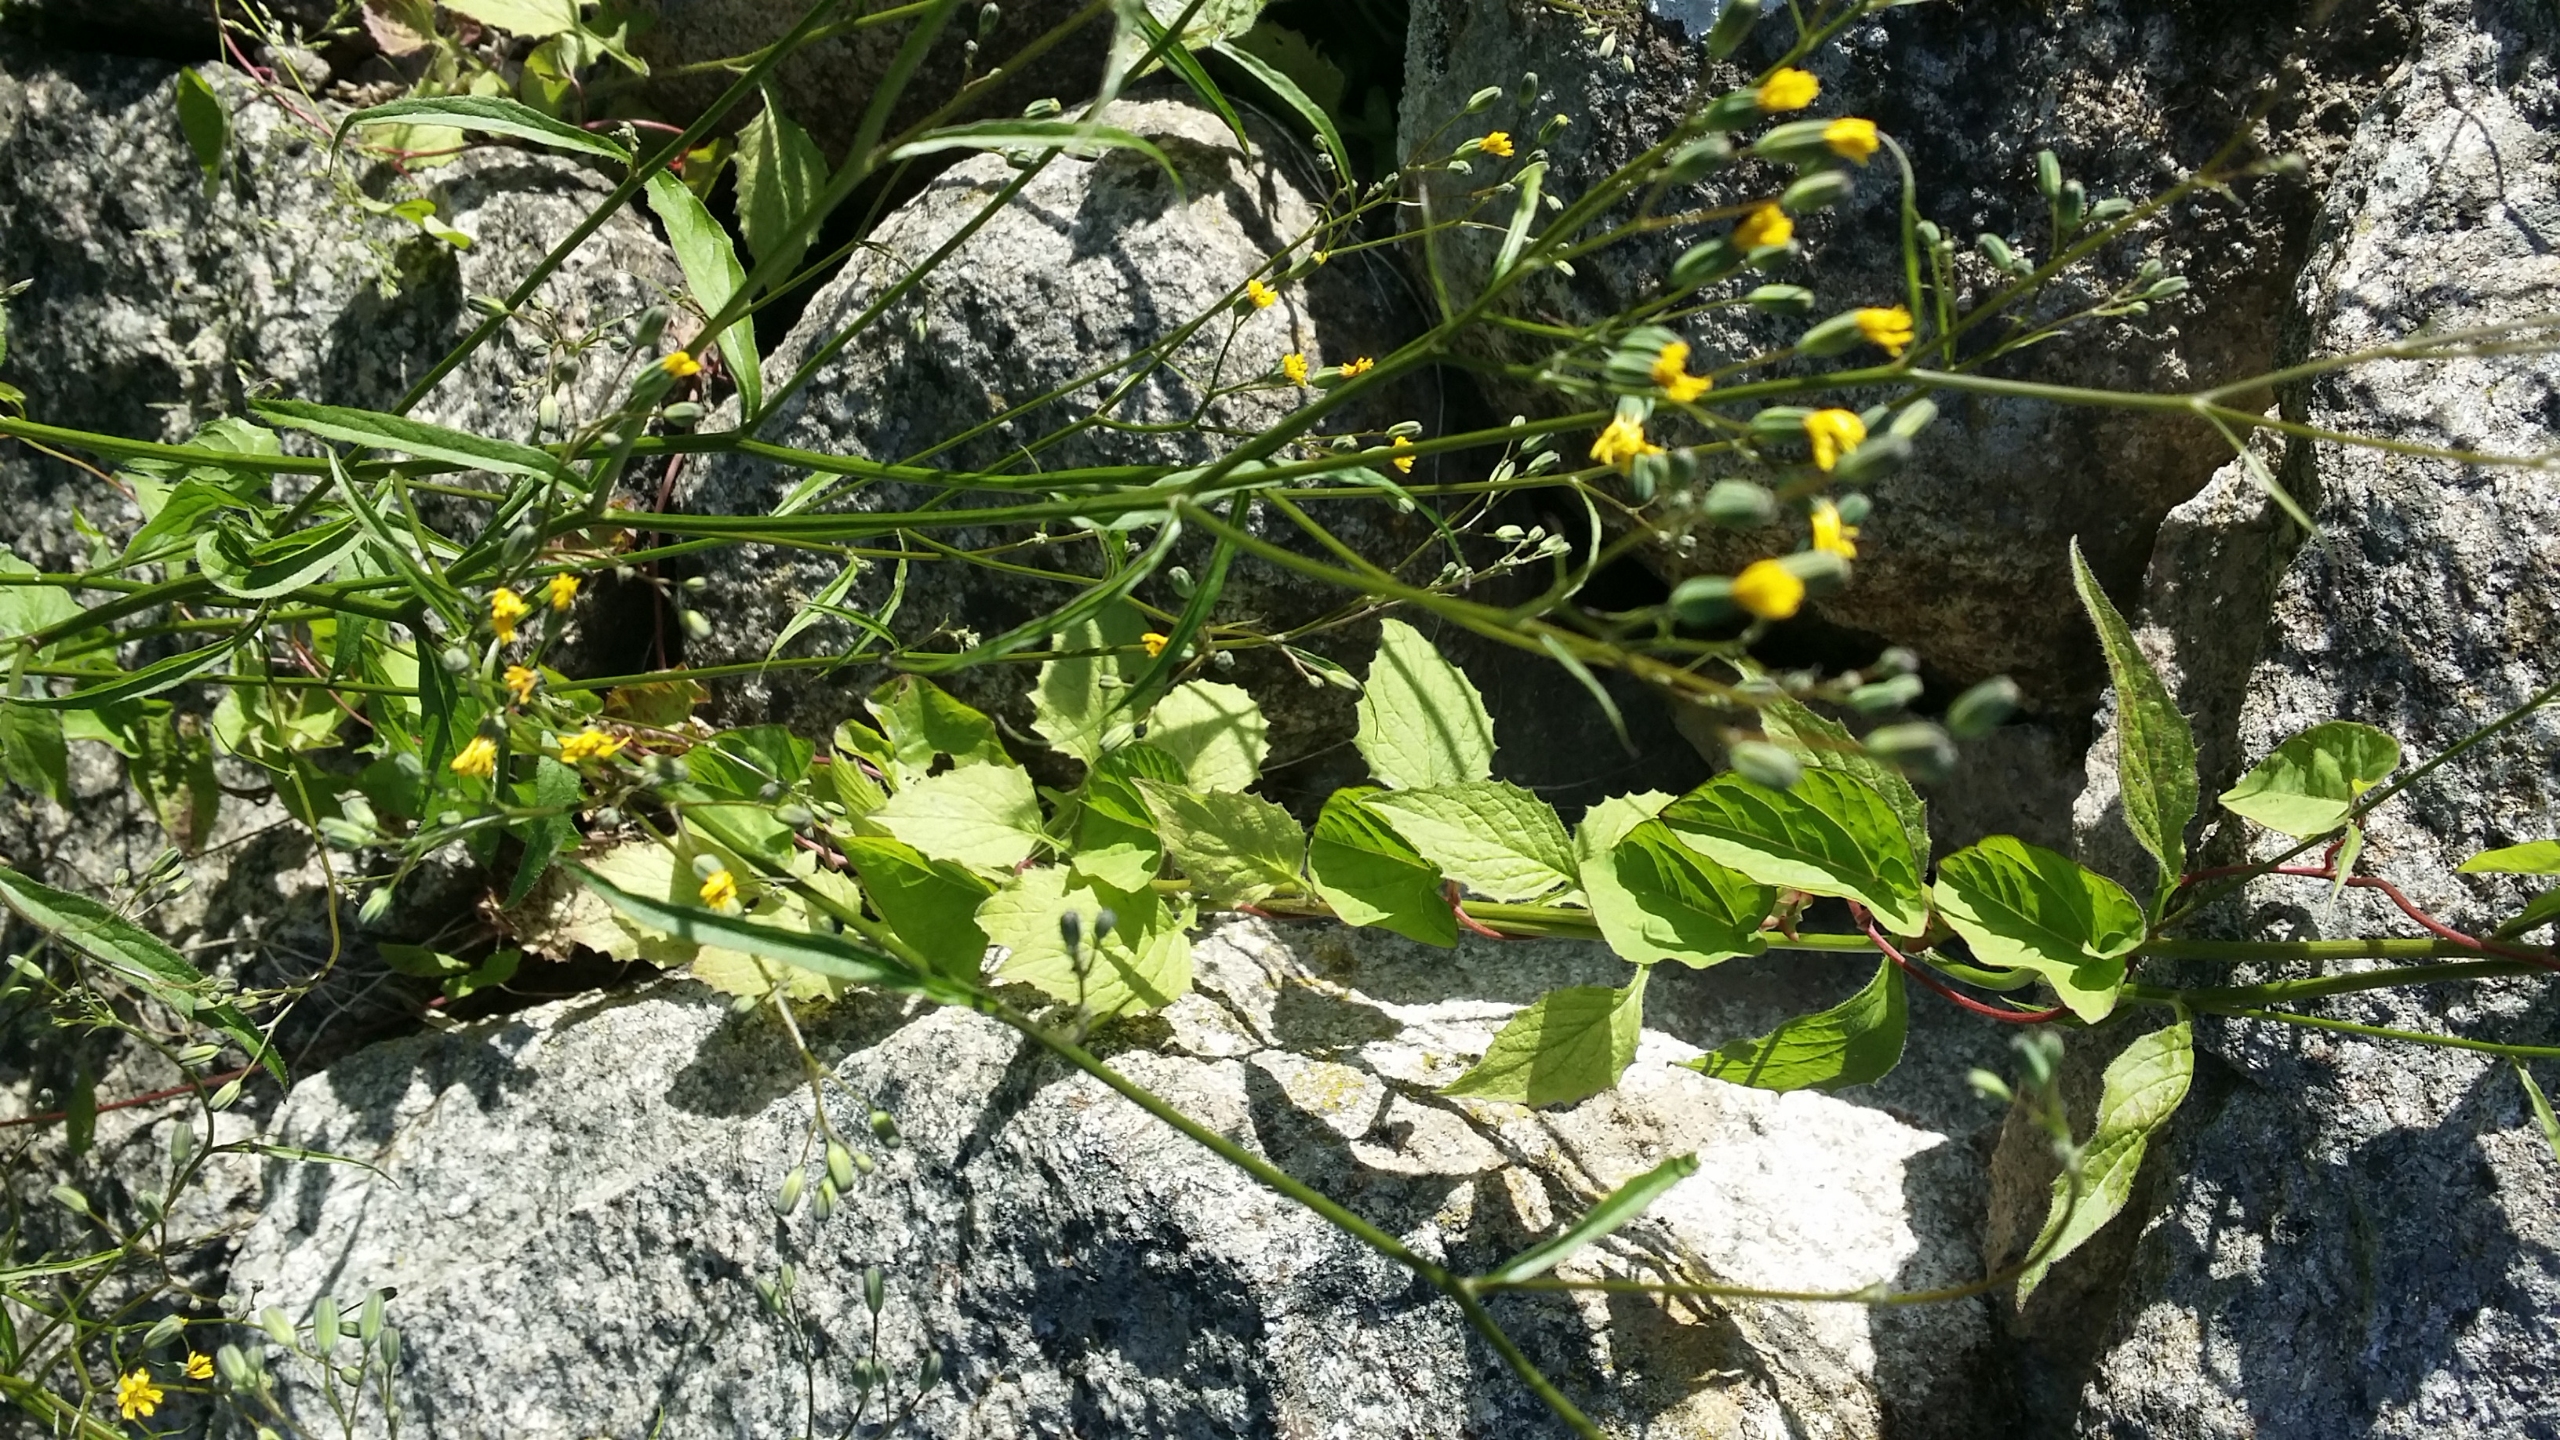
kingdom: Plantae
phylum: Tracheophyta
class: Magnoliopsida
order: Asterales
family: Asteraceae
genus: Lapsana
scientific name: Lapsana communis
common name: Haremad
